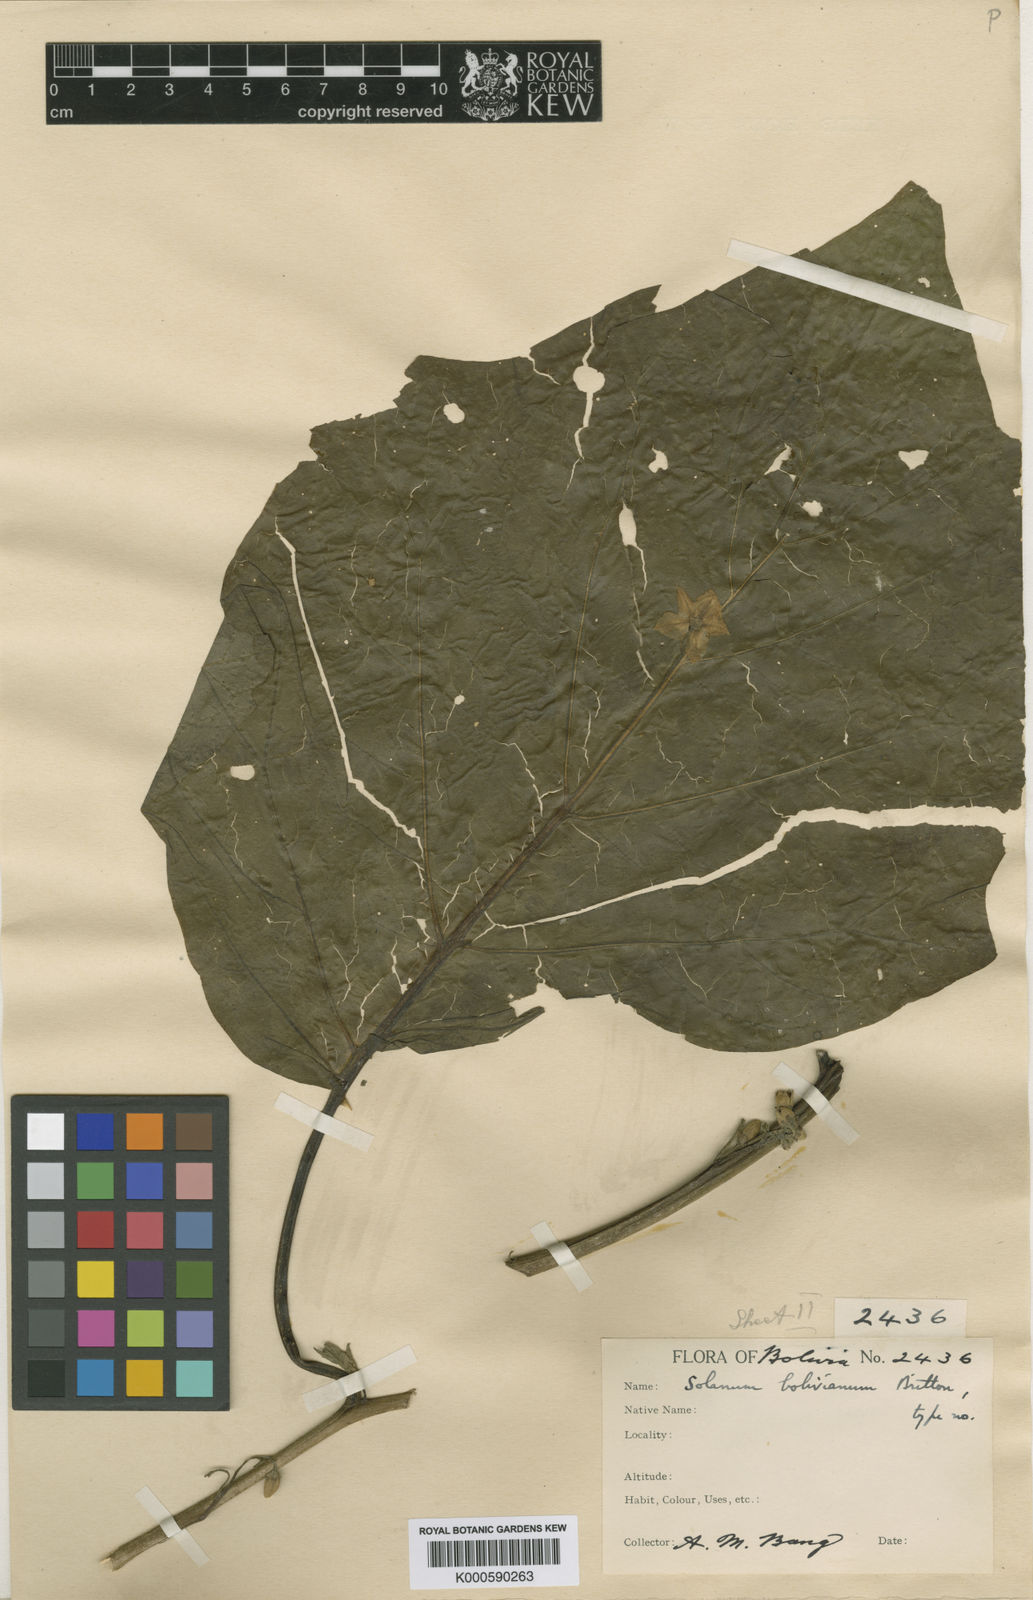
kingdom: Plantae
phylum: Tracheophyta
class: Magnoliopsida
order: Solanales
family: Solanaceae
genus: Solanum
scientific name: Solanum bolivianum
